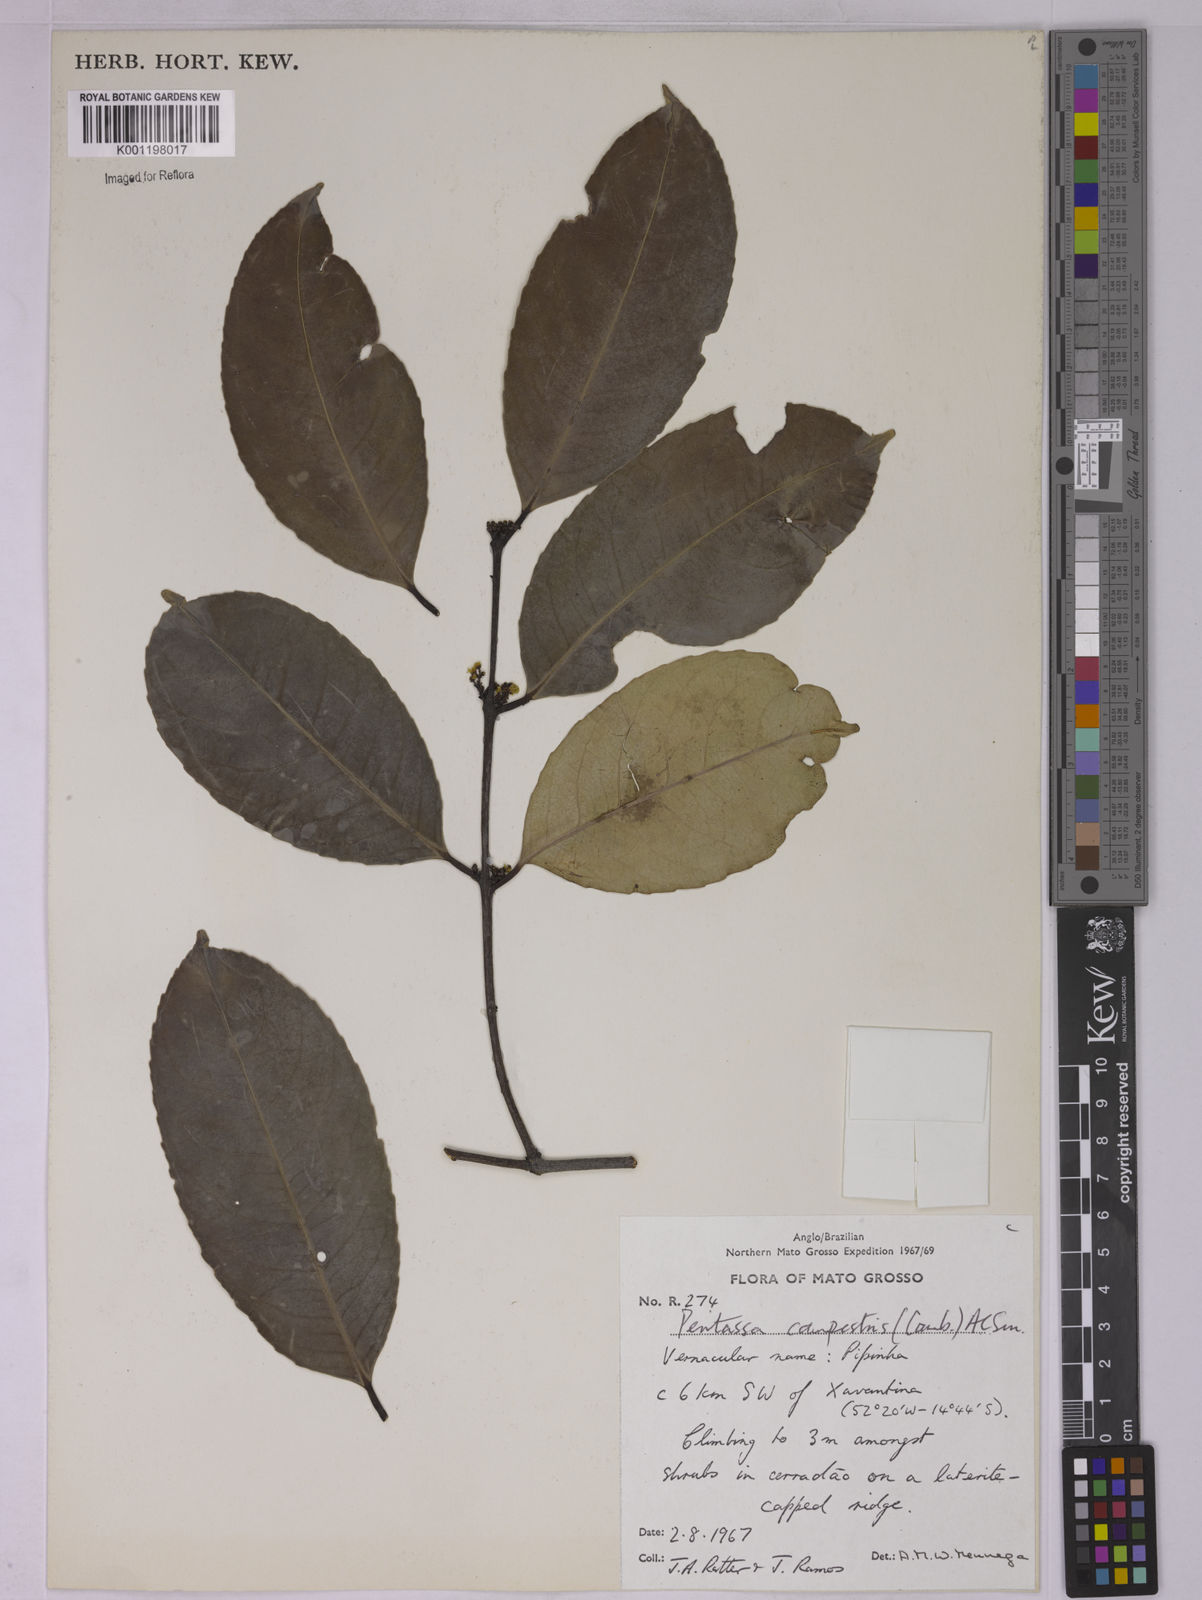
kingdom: Plantae
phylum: Tracheophyta
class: Magnoliopsida
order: Celastrales
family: Celastraceae
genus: Peritassa
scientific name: Peritassa campestris
